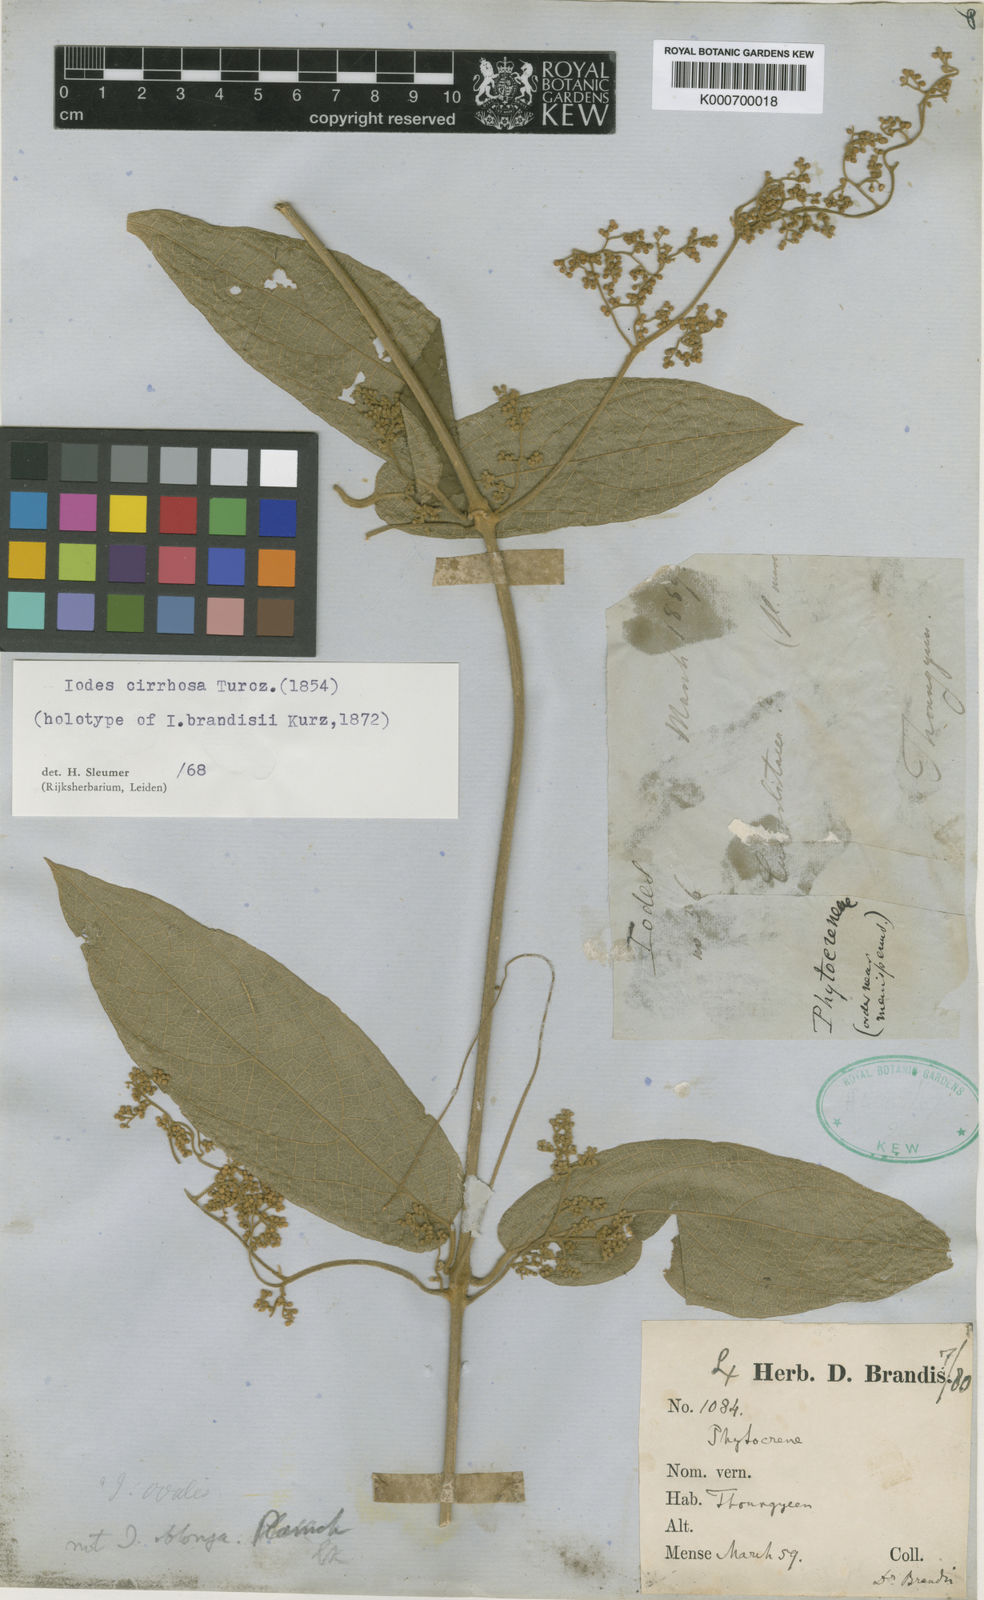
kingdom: Plantae
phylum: Tracheophyta
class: Magnoliopsida
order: Icacinales
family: Icacinaceae
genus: Iodes
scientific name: Iodes cirrhosa
